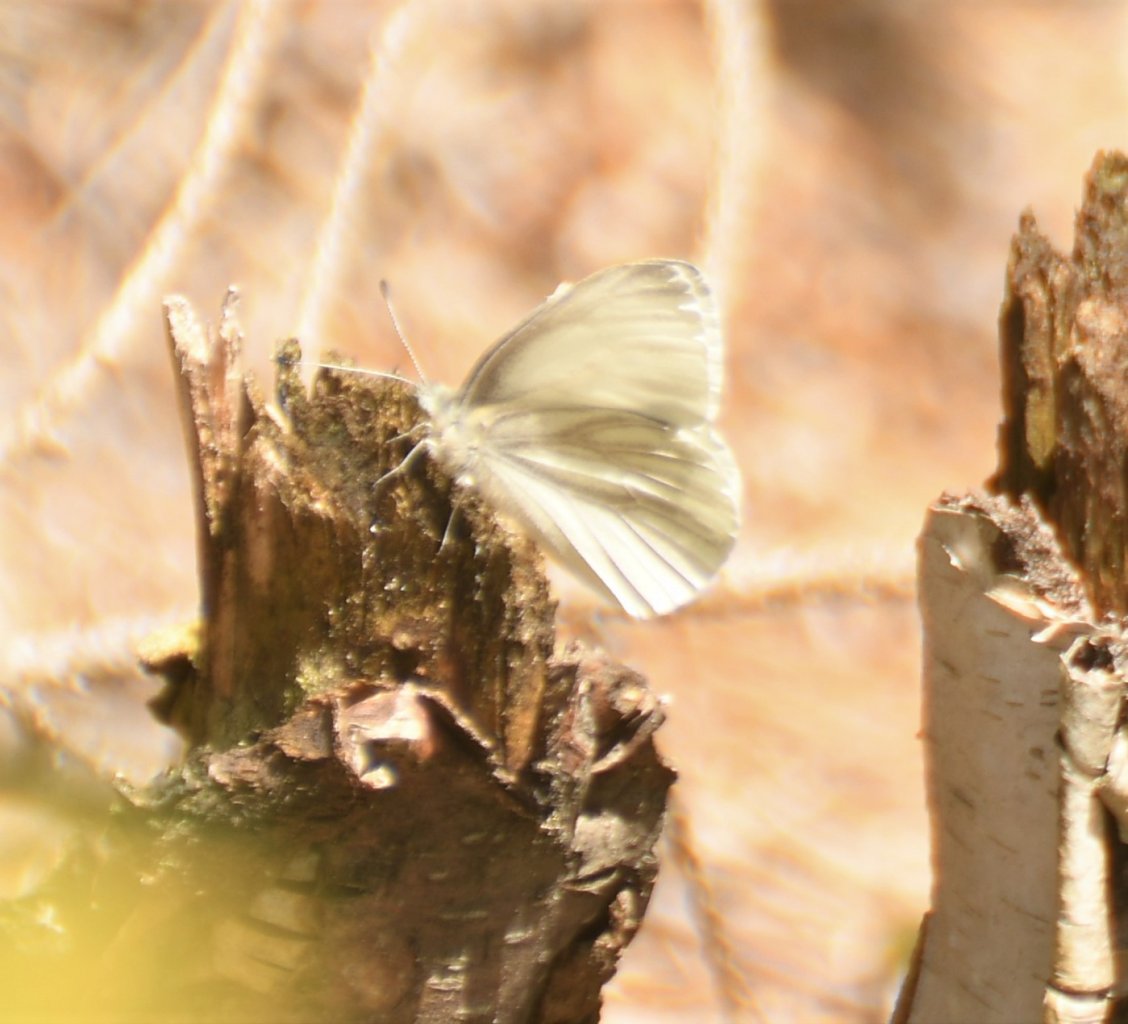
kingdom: Animalia
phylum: Arthropoda
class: Insecta
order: Lepidoptera
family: Pieridae
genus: Pieris
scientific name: Pieris virginiensis
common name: West Virginia White
